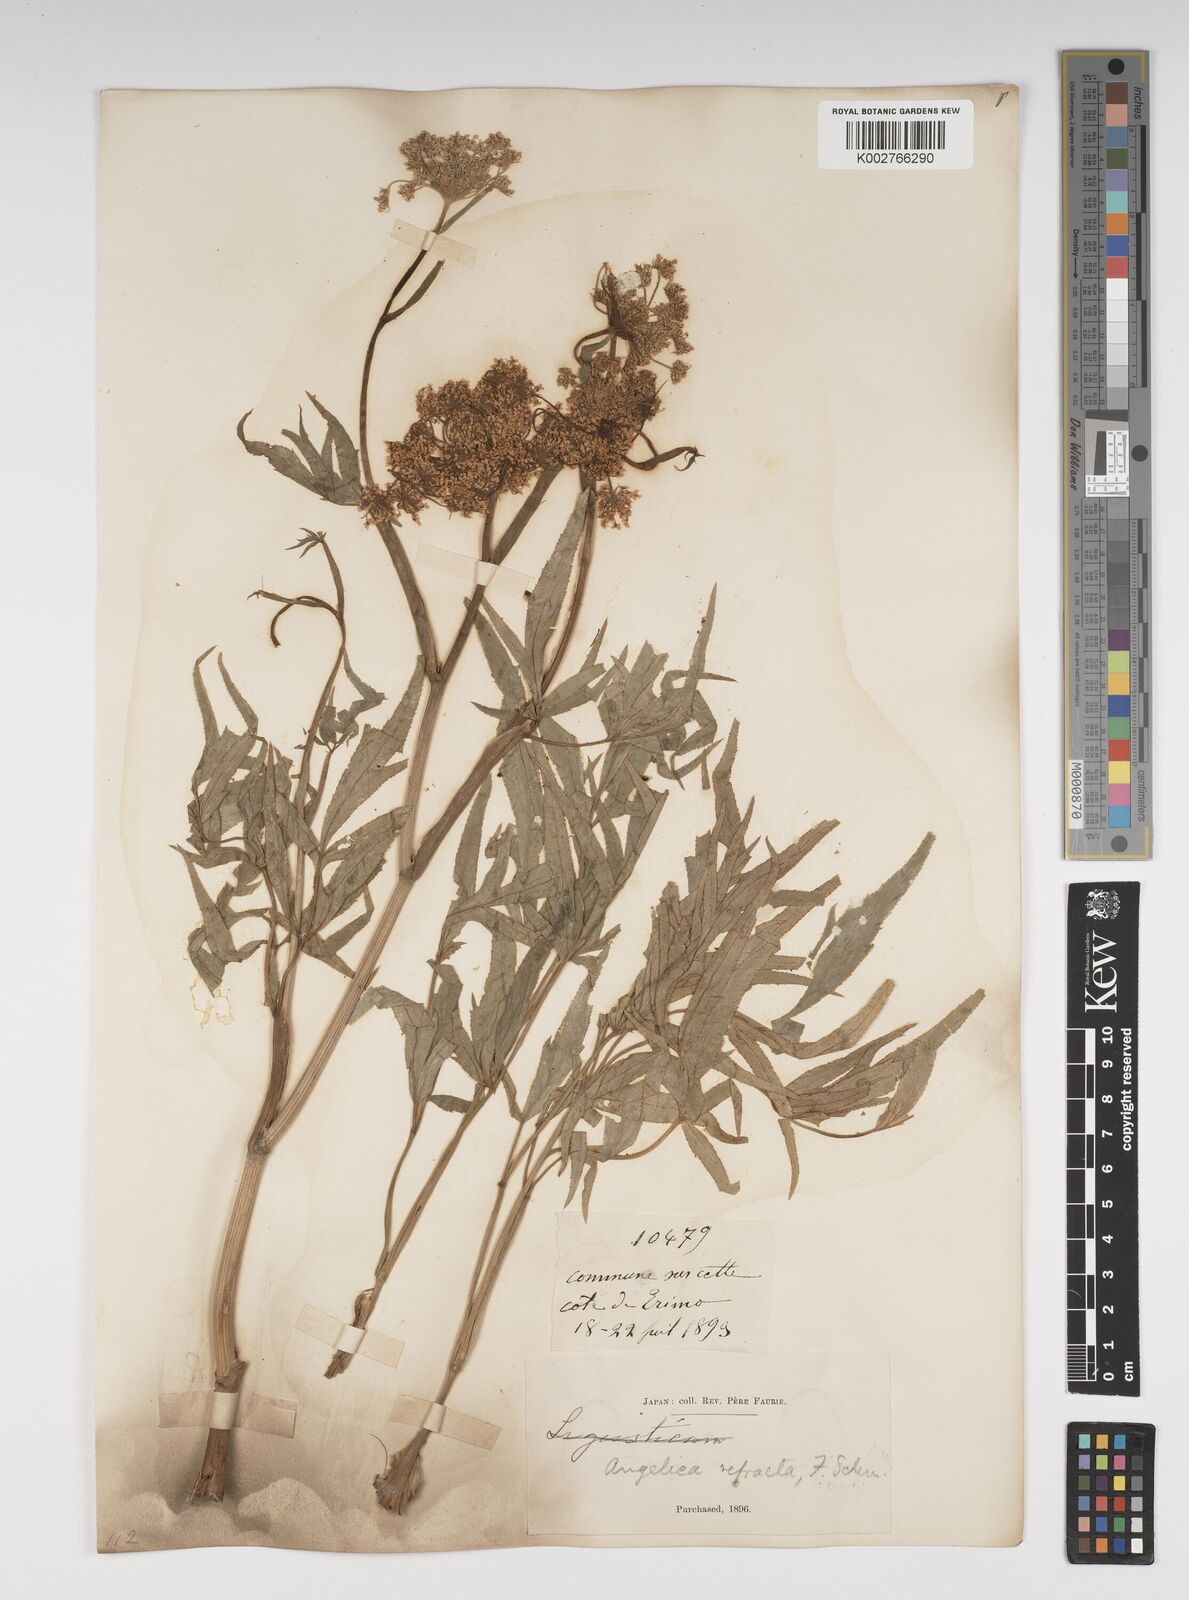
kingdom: Plantae
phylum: Tracheophyta
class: Magnoliopsida
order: Apiales
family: Apiaceae
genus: Angelica
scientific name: Angelica genuflexa
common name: Kneeling angelica
